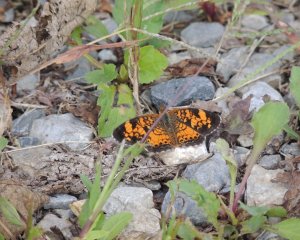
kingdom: Animalia
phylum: Arthropoda
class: Insecta
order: Lepidoptera
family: Nymphalidae
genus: Phyciodes
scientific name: Phyciodes tharos
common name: Pearl Crescent
